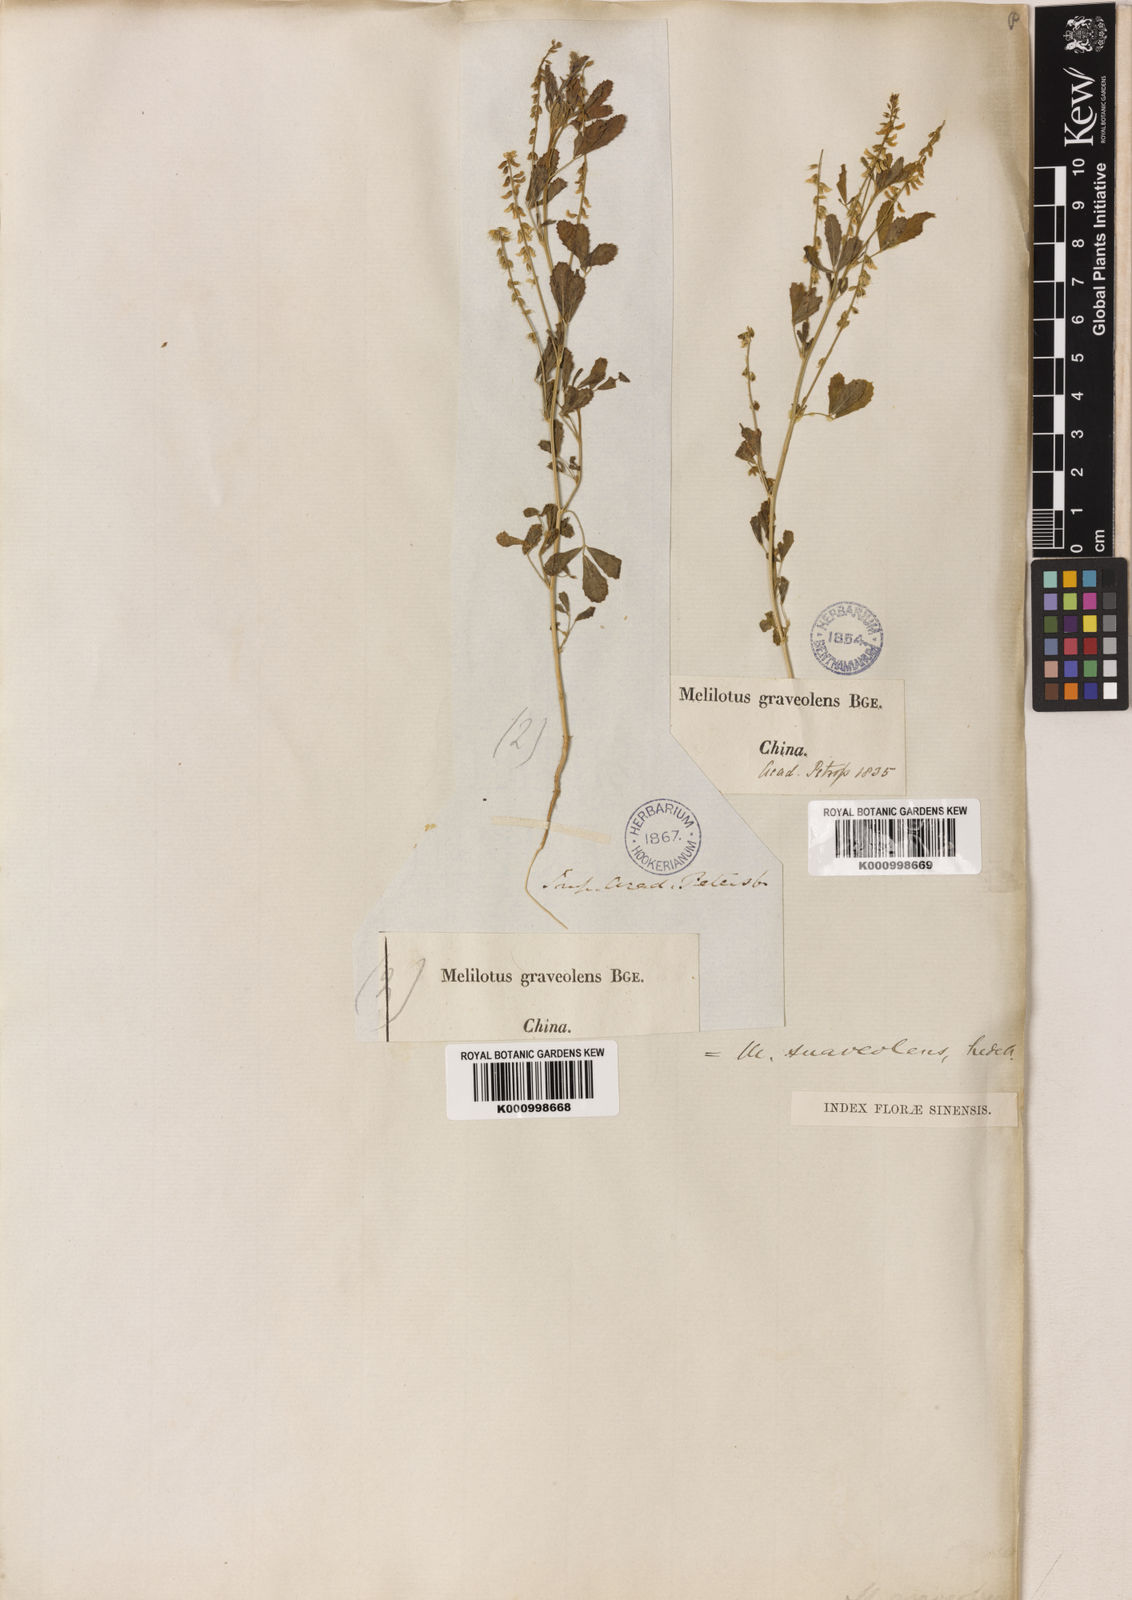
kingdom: Plantae
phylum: Tracheophyta
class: Magnoliopsida
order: Fabales
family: Fabaceae
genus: Melilotus
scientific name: Melilotus suaveolens
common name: Daghestan sweet-clover
